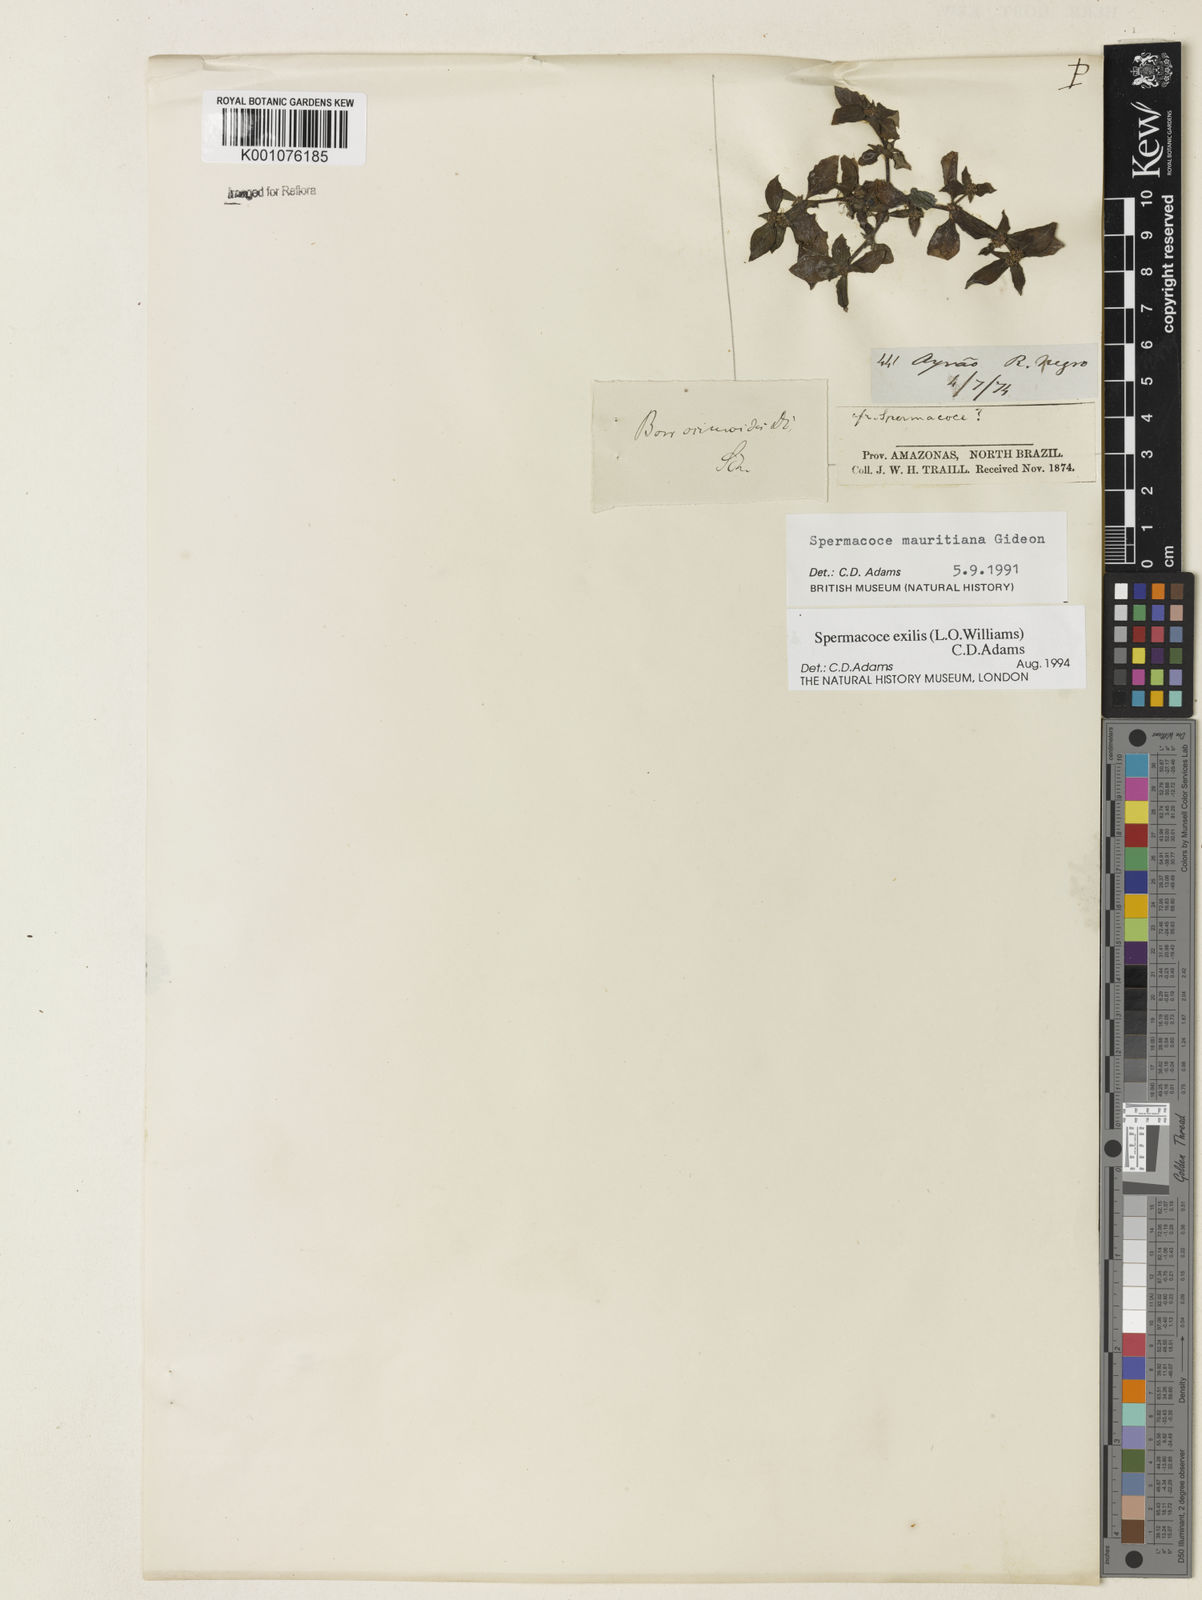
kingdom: Plantae
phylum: Tracheophyta
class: Magnoliopsida
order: Gentianales
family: Rubiaceae
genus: Spermacoce
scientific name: Spermacoce exilis
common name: Pacific false buttonweed
